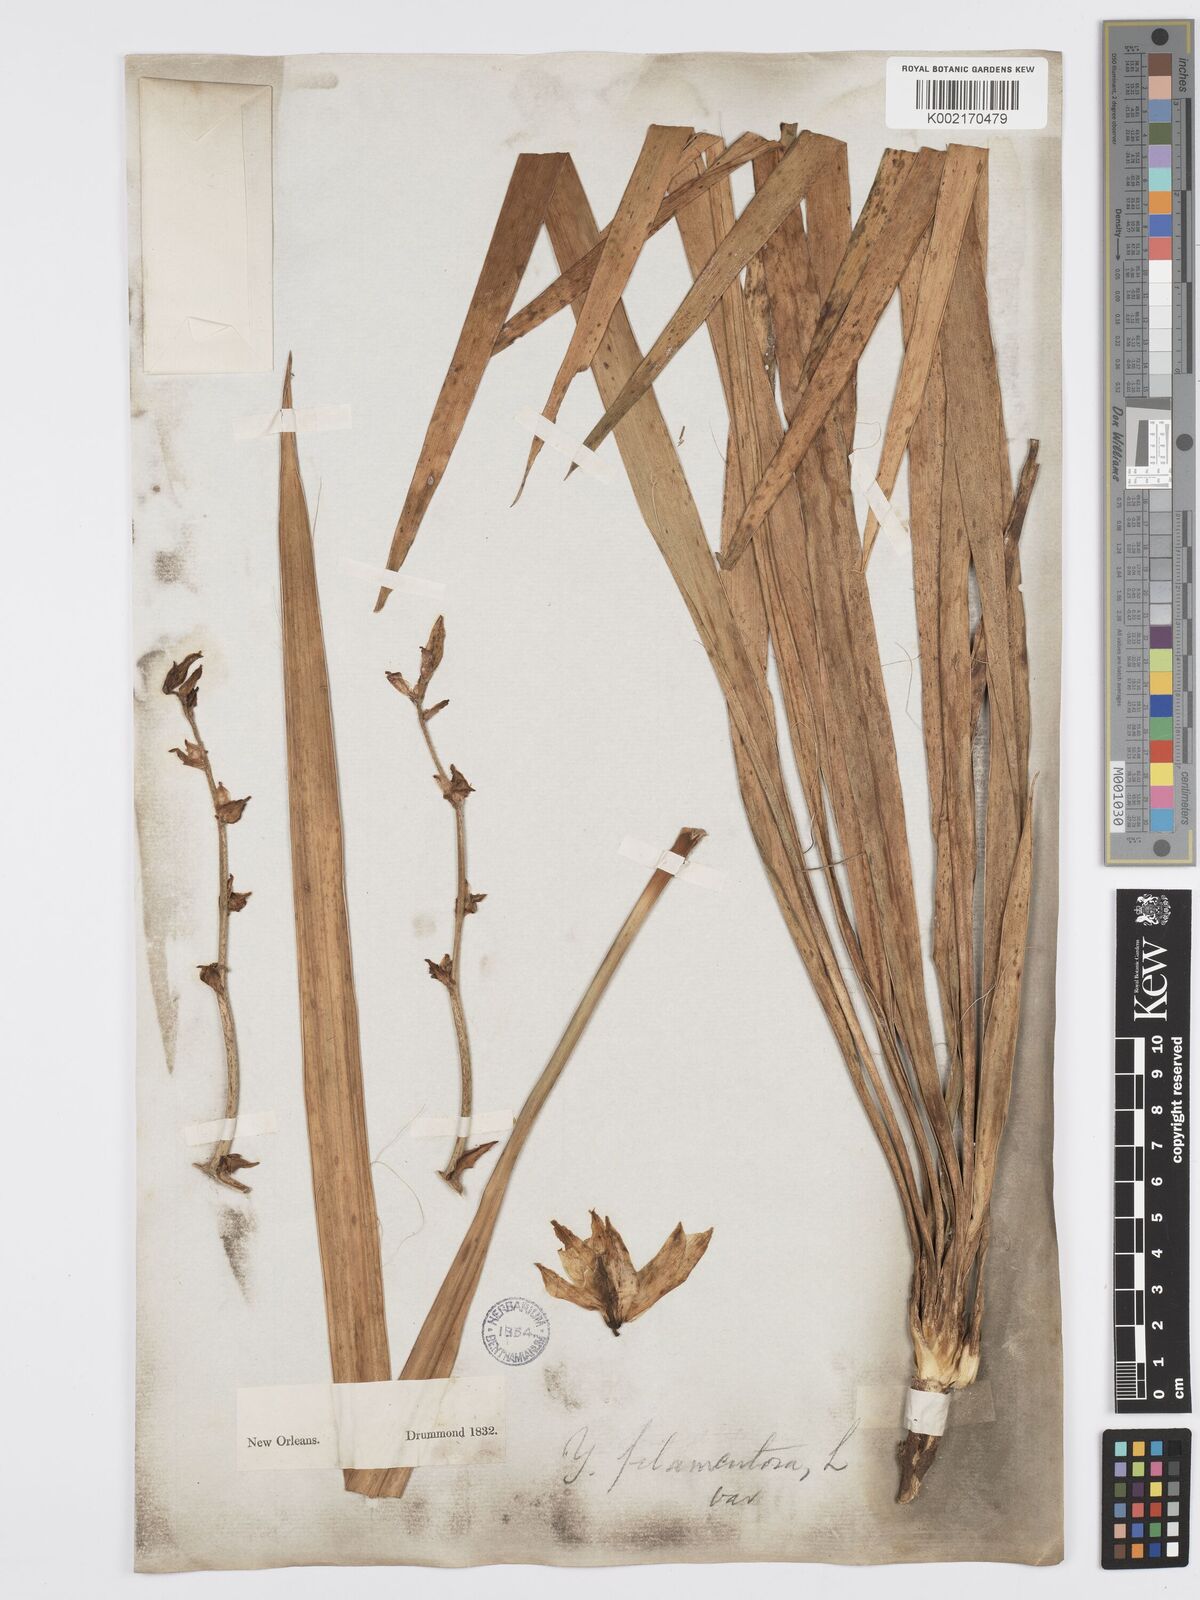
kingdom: Plantae
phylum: Tracheophyta
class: Liliopsida
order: Asparagales
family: Asparagaceae
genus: Yucca
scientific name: Yucca flaccida
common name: Adam's-needle
